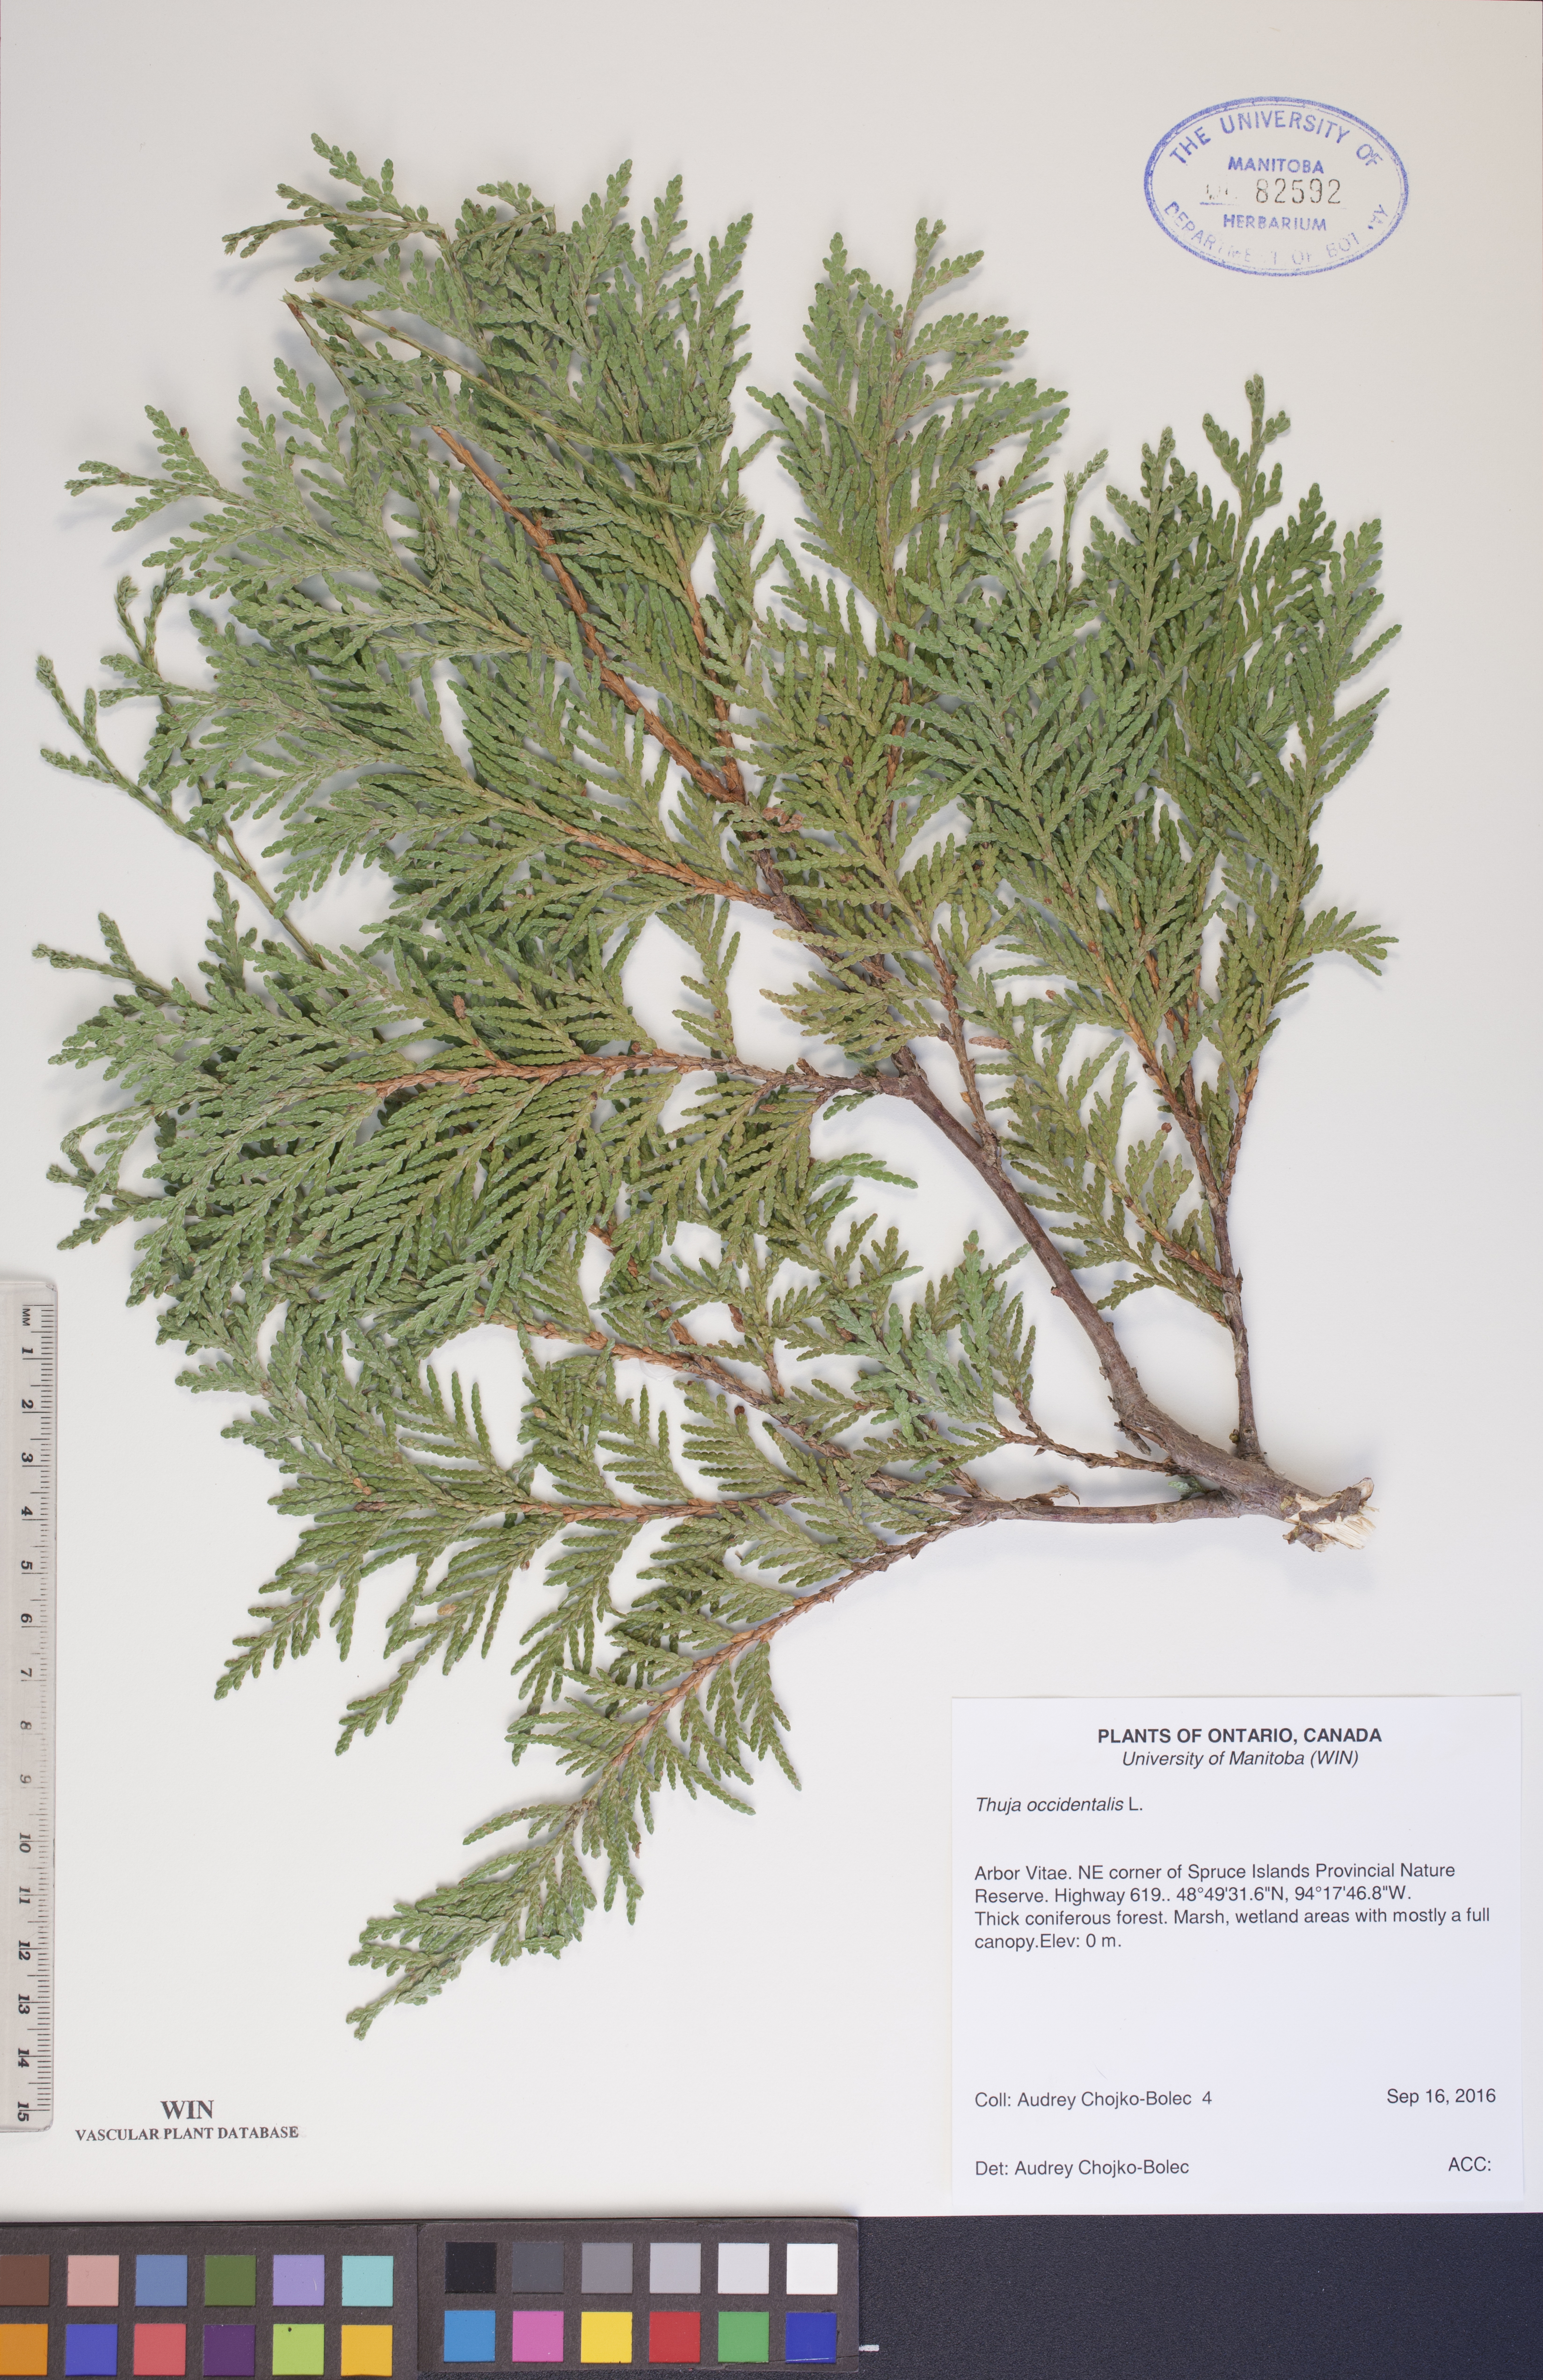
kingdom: Plantae
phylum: Tracheophyta
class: Pinopsida
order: Pinales
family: Cupressaceae
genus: Thuja
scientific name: Thuja occidentalis
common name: Northern white-cedar
